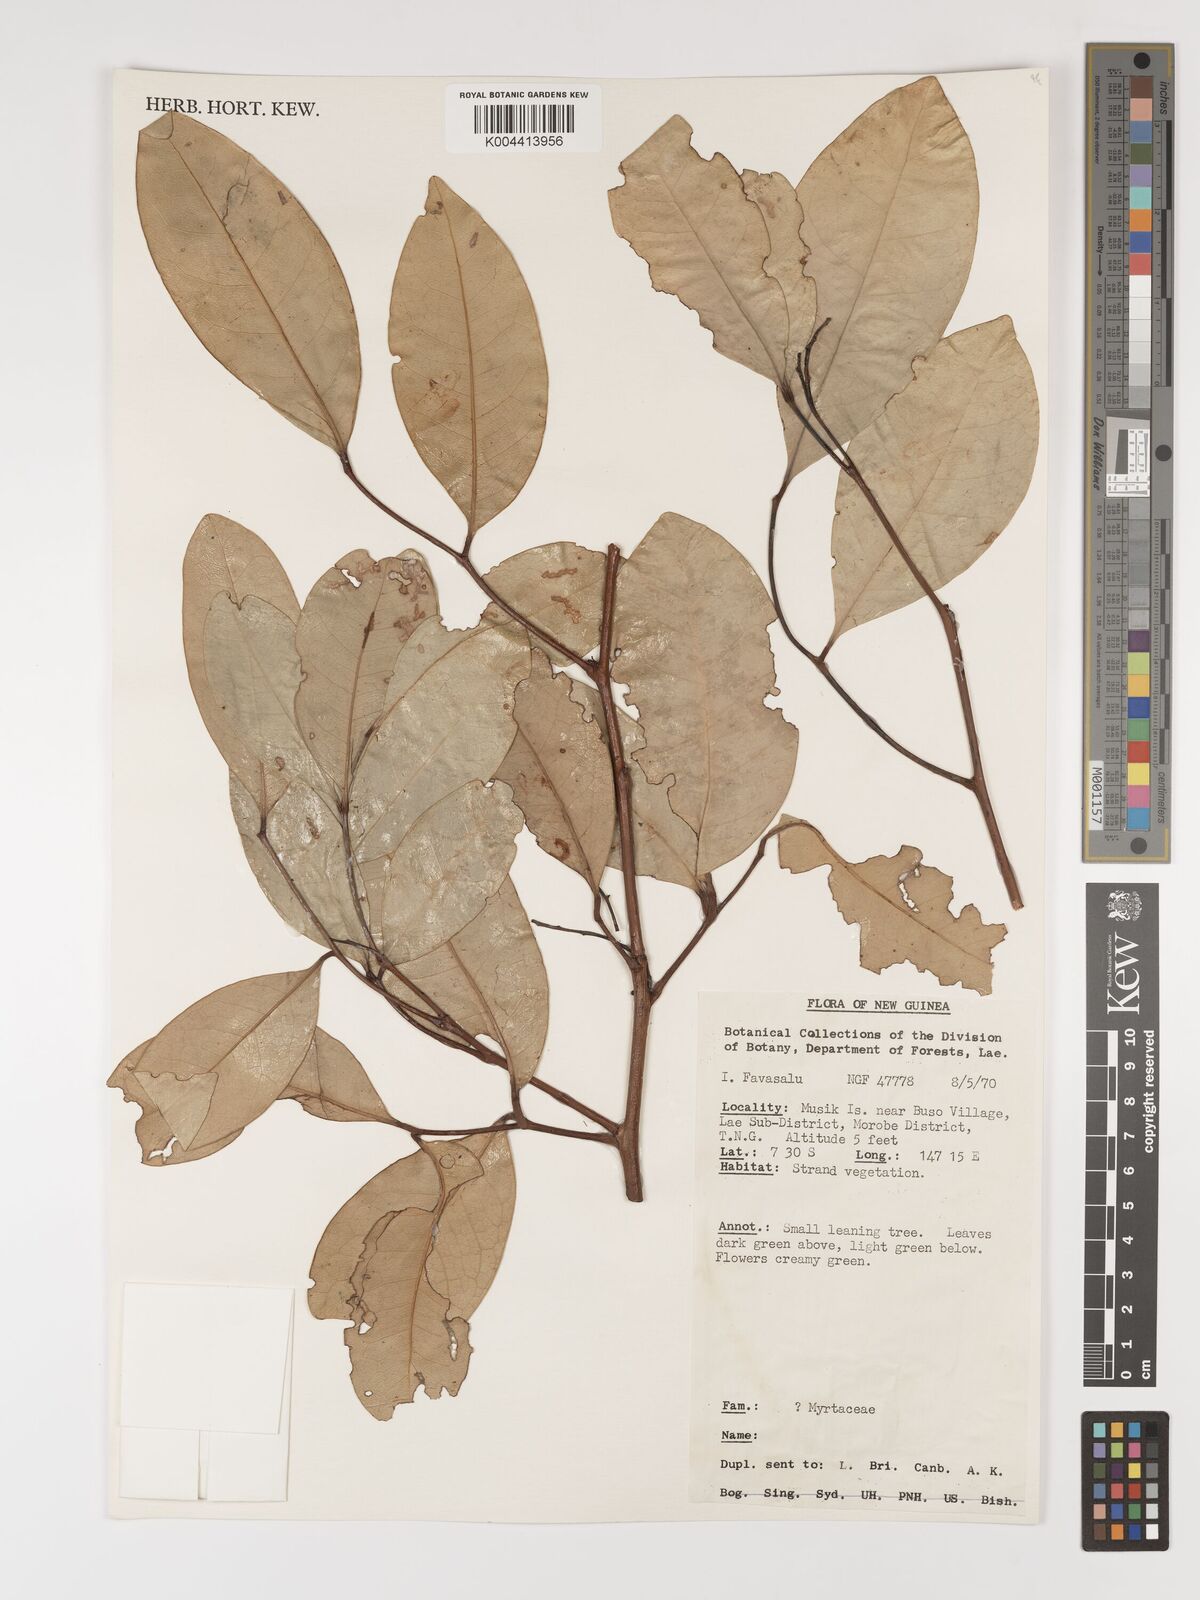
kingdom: Plantae
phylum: Tracheophyta
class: Magnoliopsida
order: Myrtales
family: Myrtaceae
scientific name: Myrtaceae
